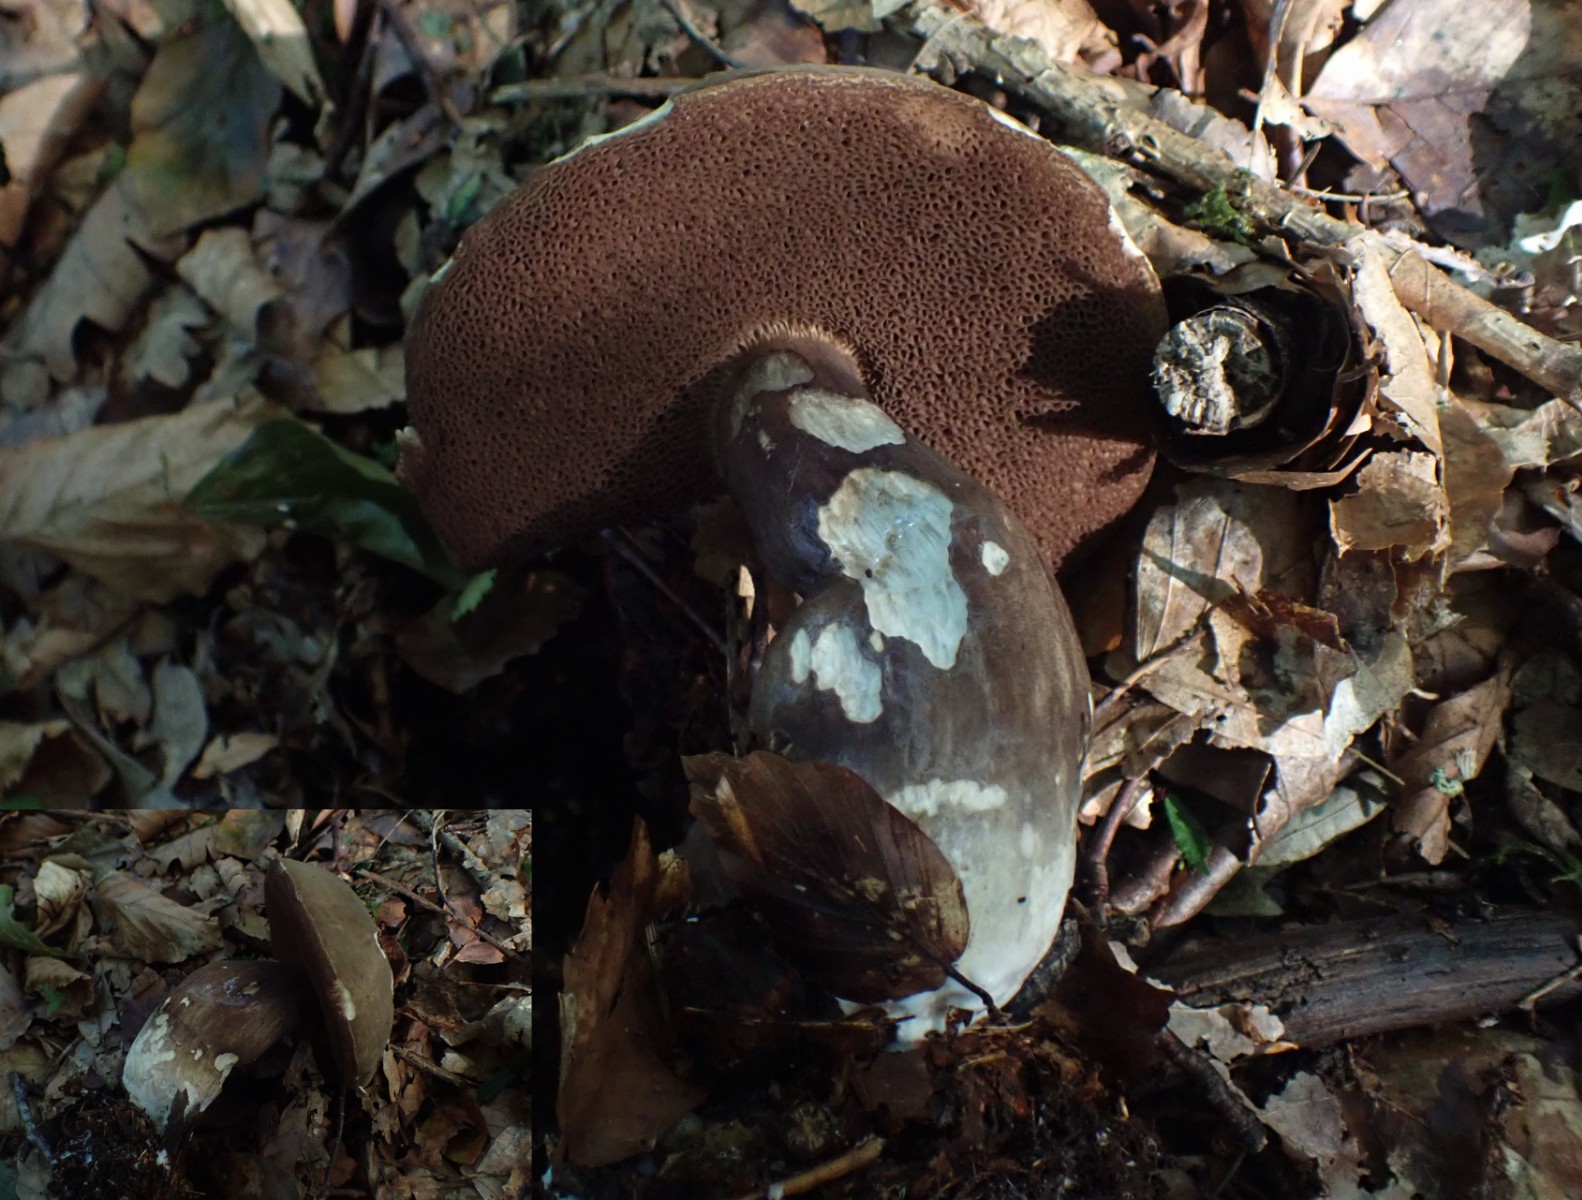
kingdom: Fungi
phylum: Basidiomycota
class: Agaricomycetes
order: Boletales
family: Boletaceae
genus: Porphyrellus
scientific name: Porphyrellus porphyrosporus
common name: sodrørhat
